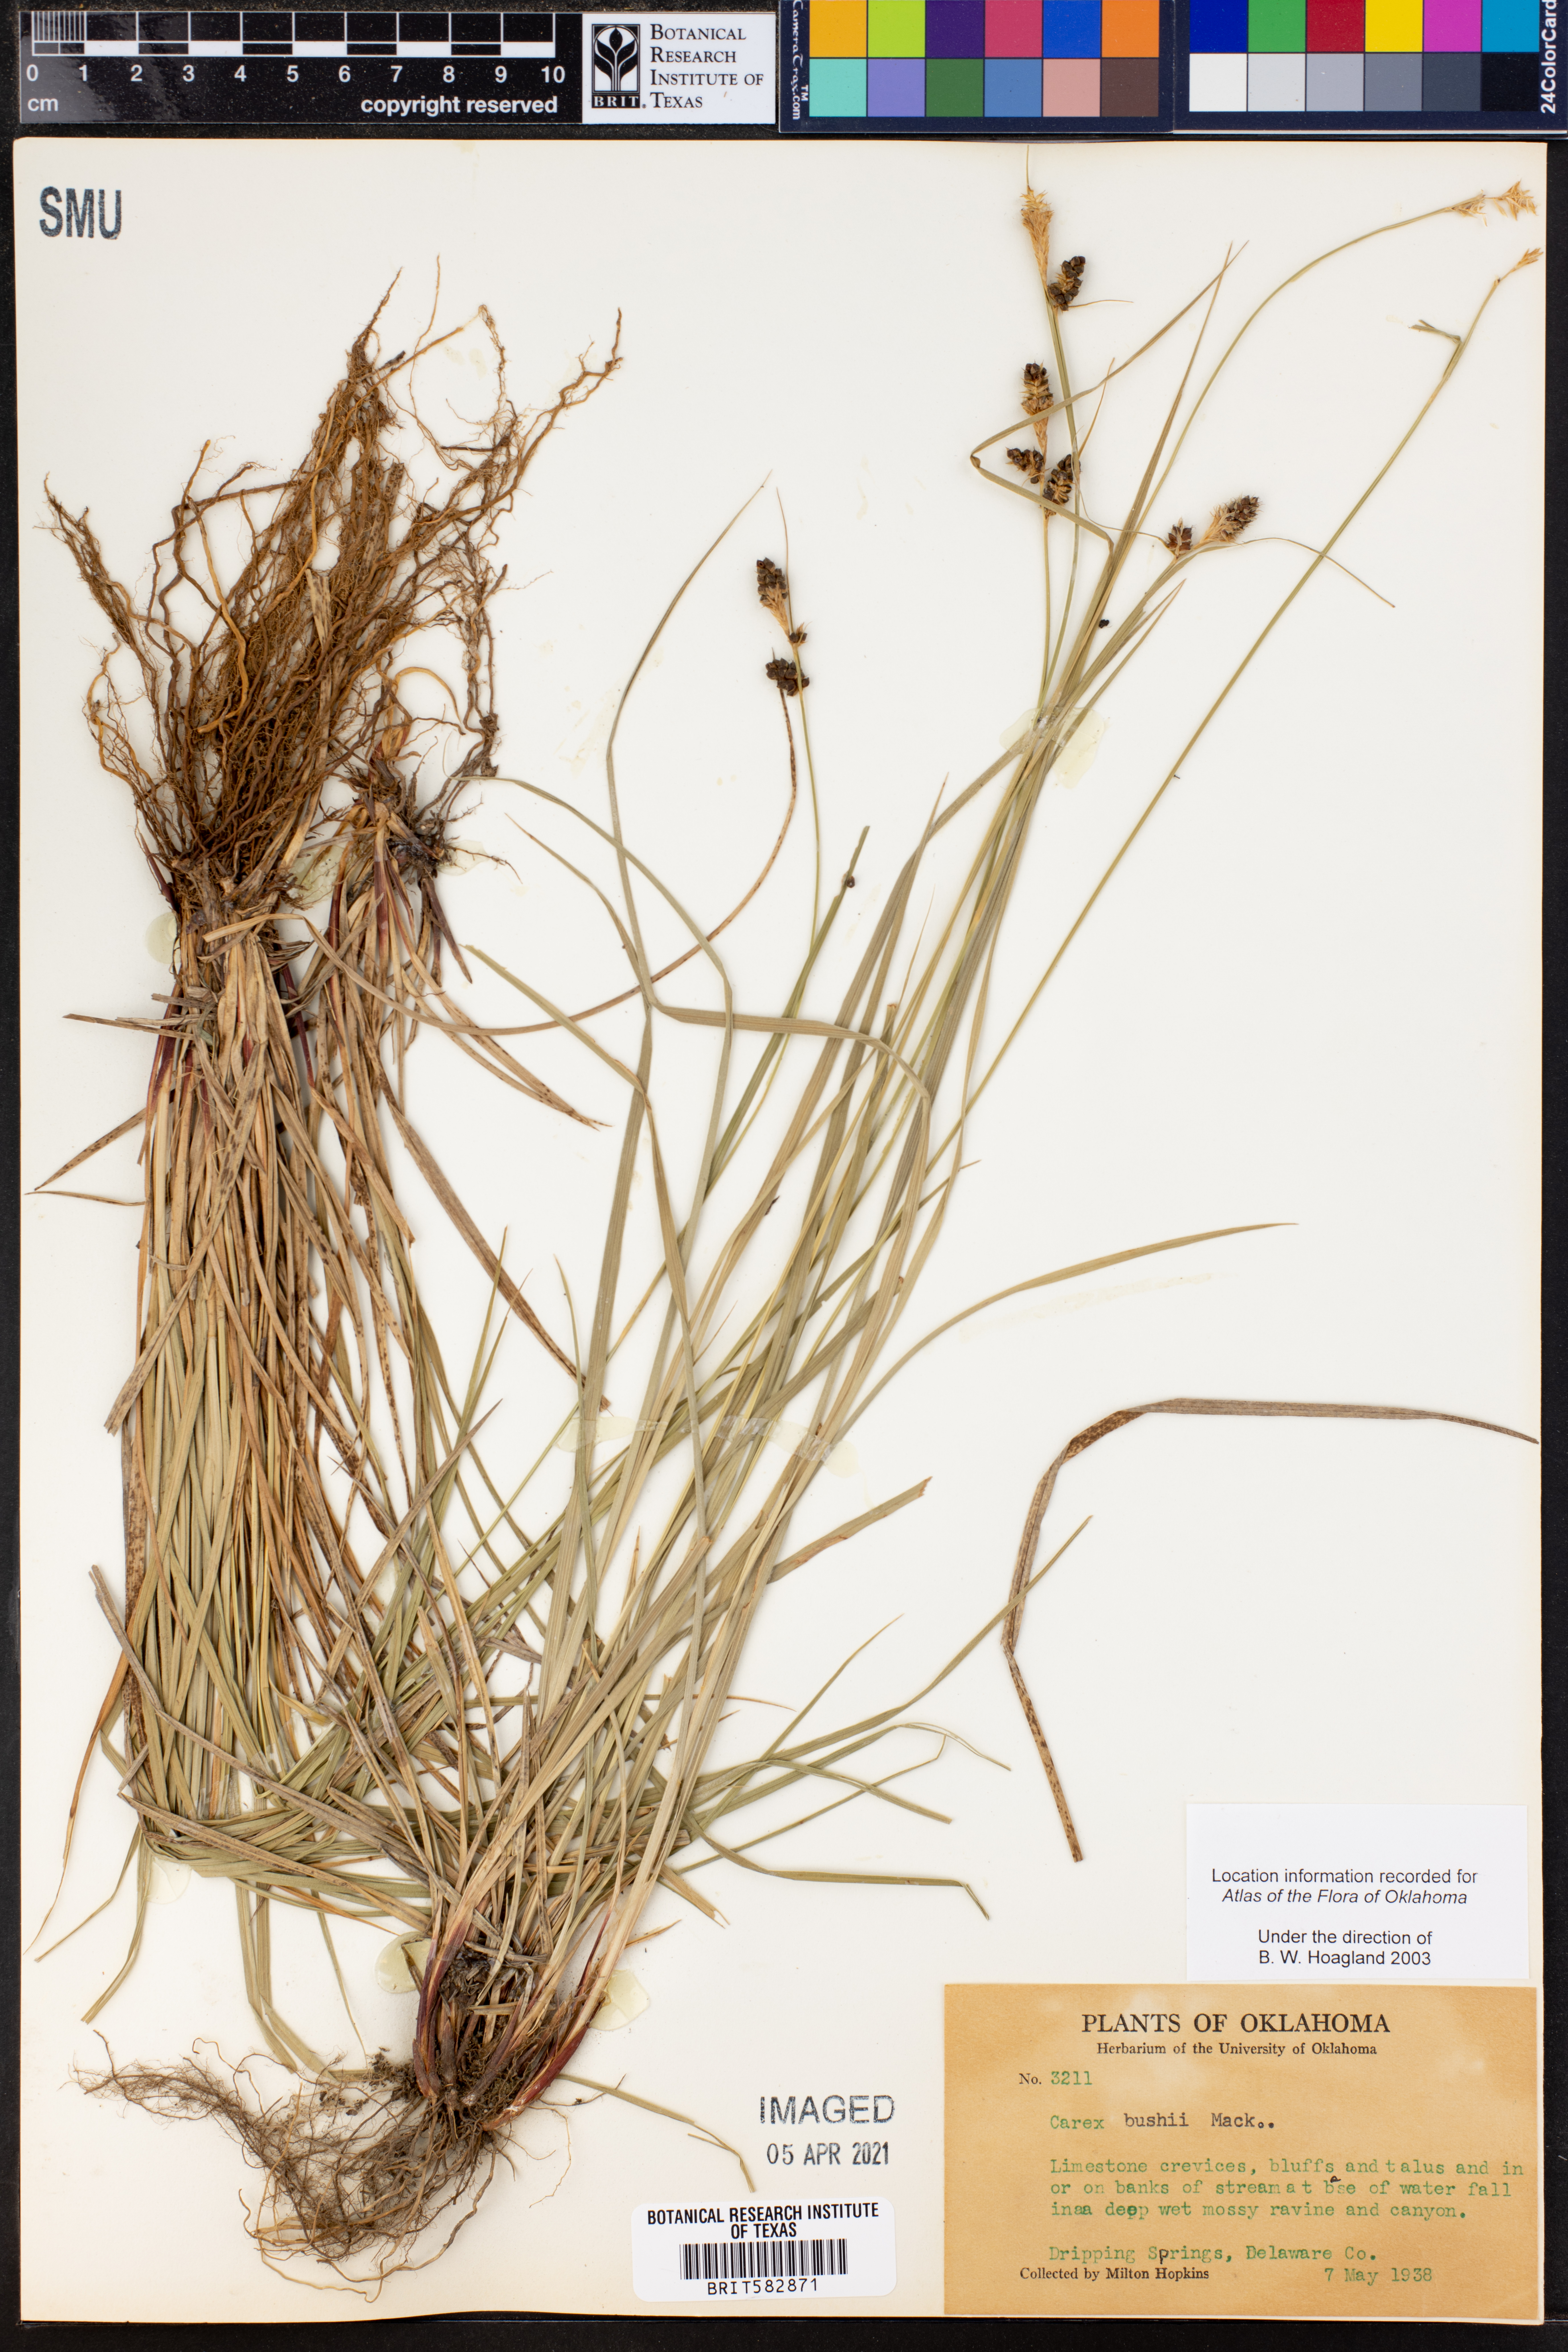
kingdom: Plantae
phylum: Tracheophyta
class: Liliopsida
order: Poales
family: Cyperaceae
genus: Carex
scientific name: Carex bushii
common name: Bush's sedge
